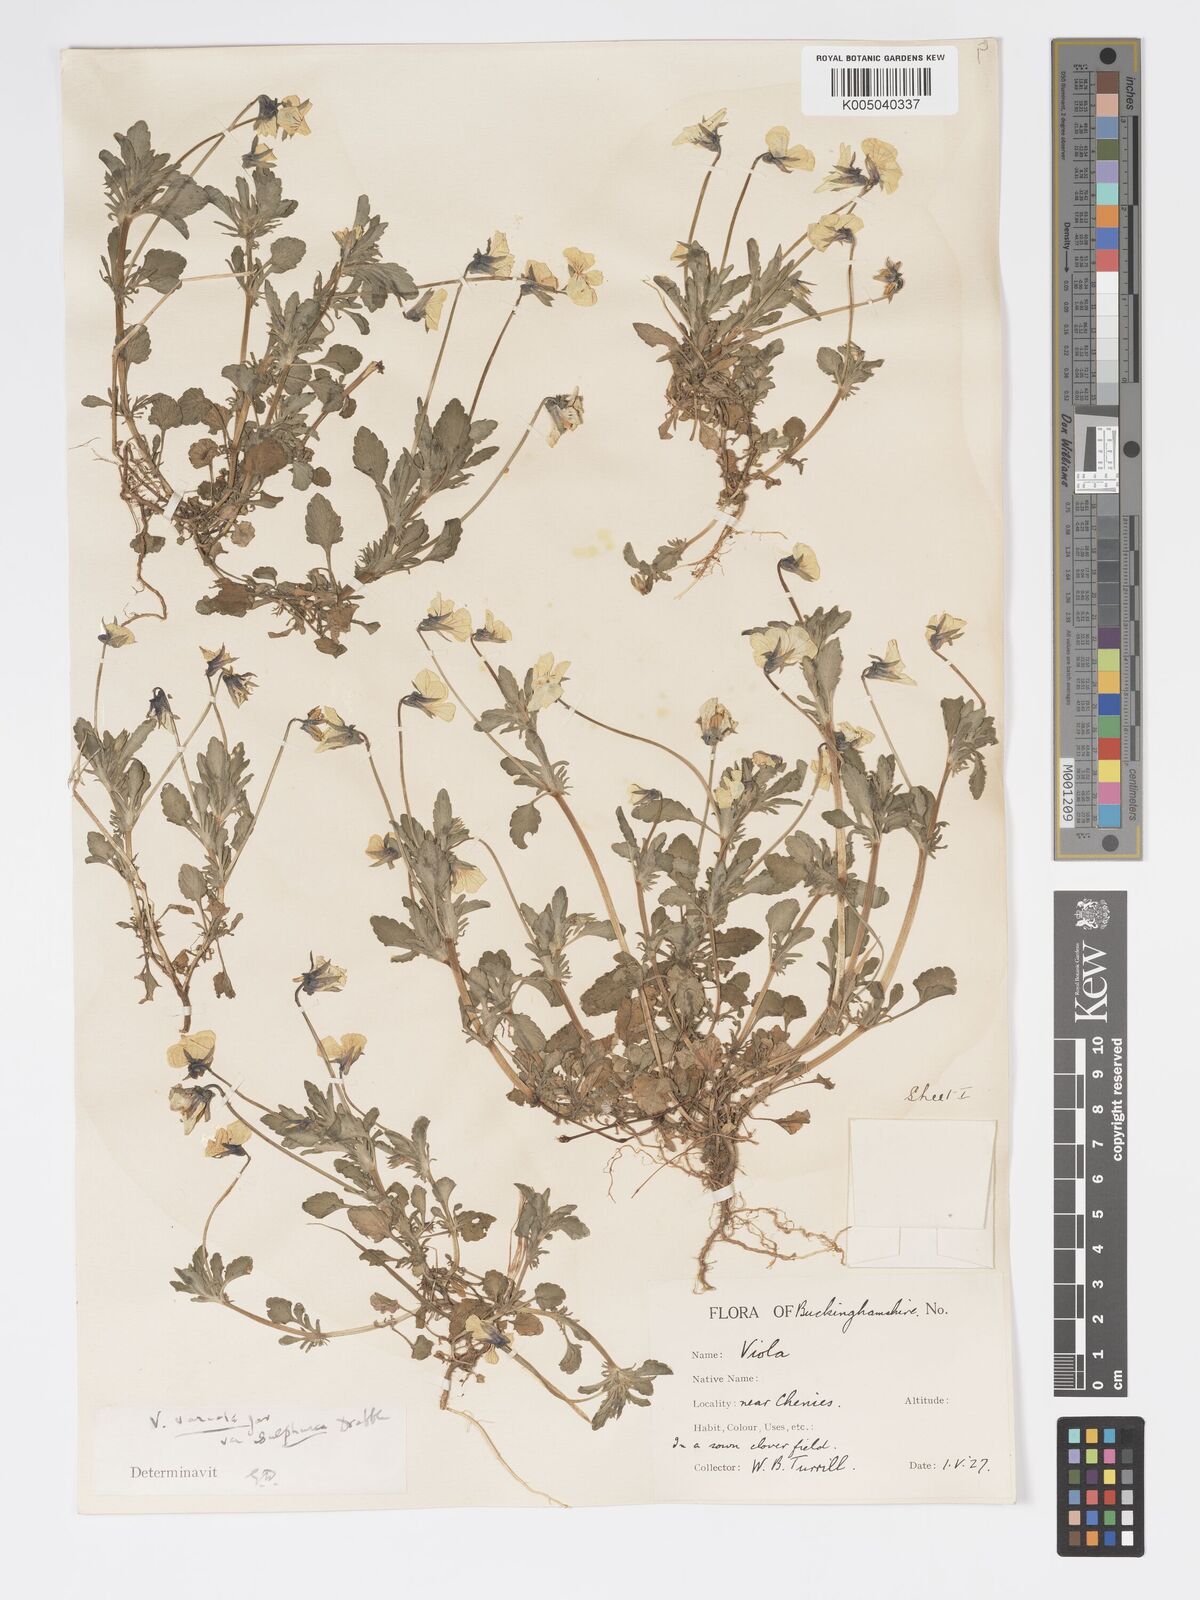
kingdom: Plantae
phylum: Tracheophyta
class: Magnoliopsida
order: Malpighiales
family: Violaceae
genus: Viola
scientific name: Viola arvensis
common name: Field pansy
